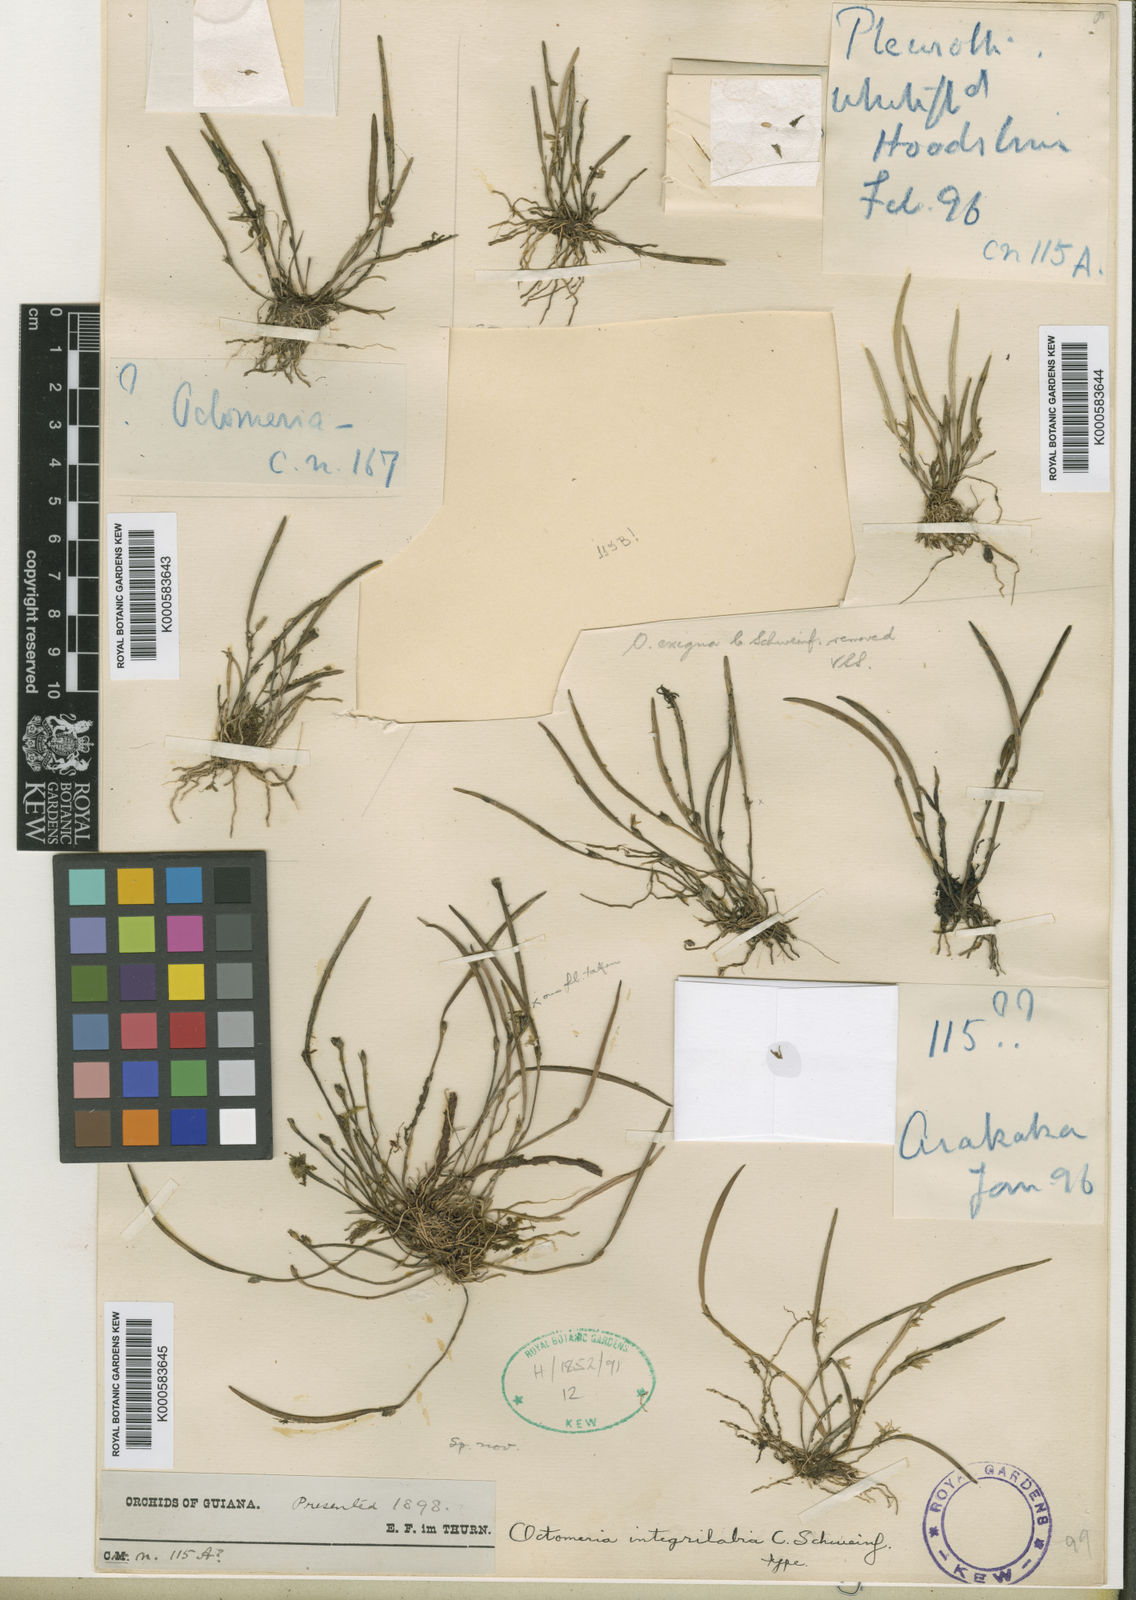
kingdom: Plantae
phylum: Tracheophyta
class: Liliopsida
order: Asparagales
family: Orchidaceae
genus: Octomeria
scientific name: Octomeria integrilabia
